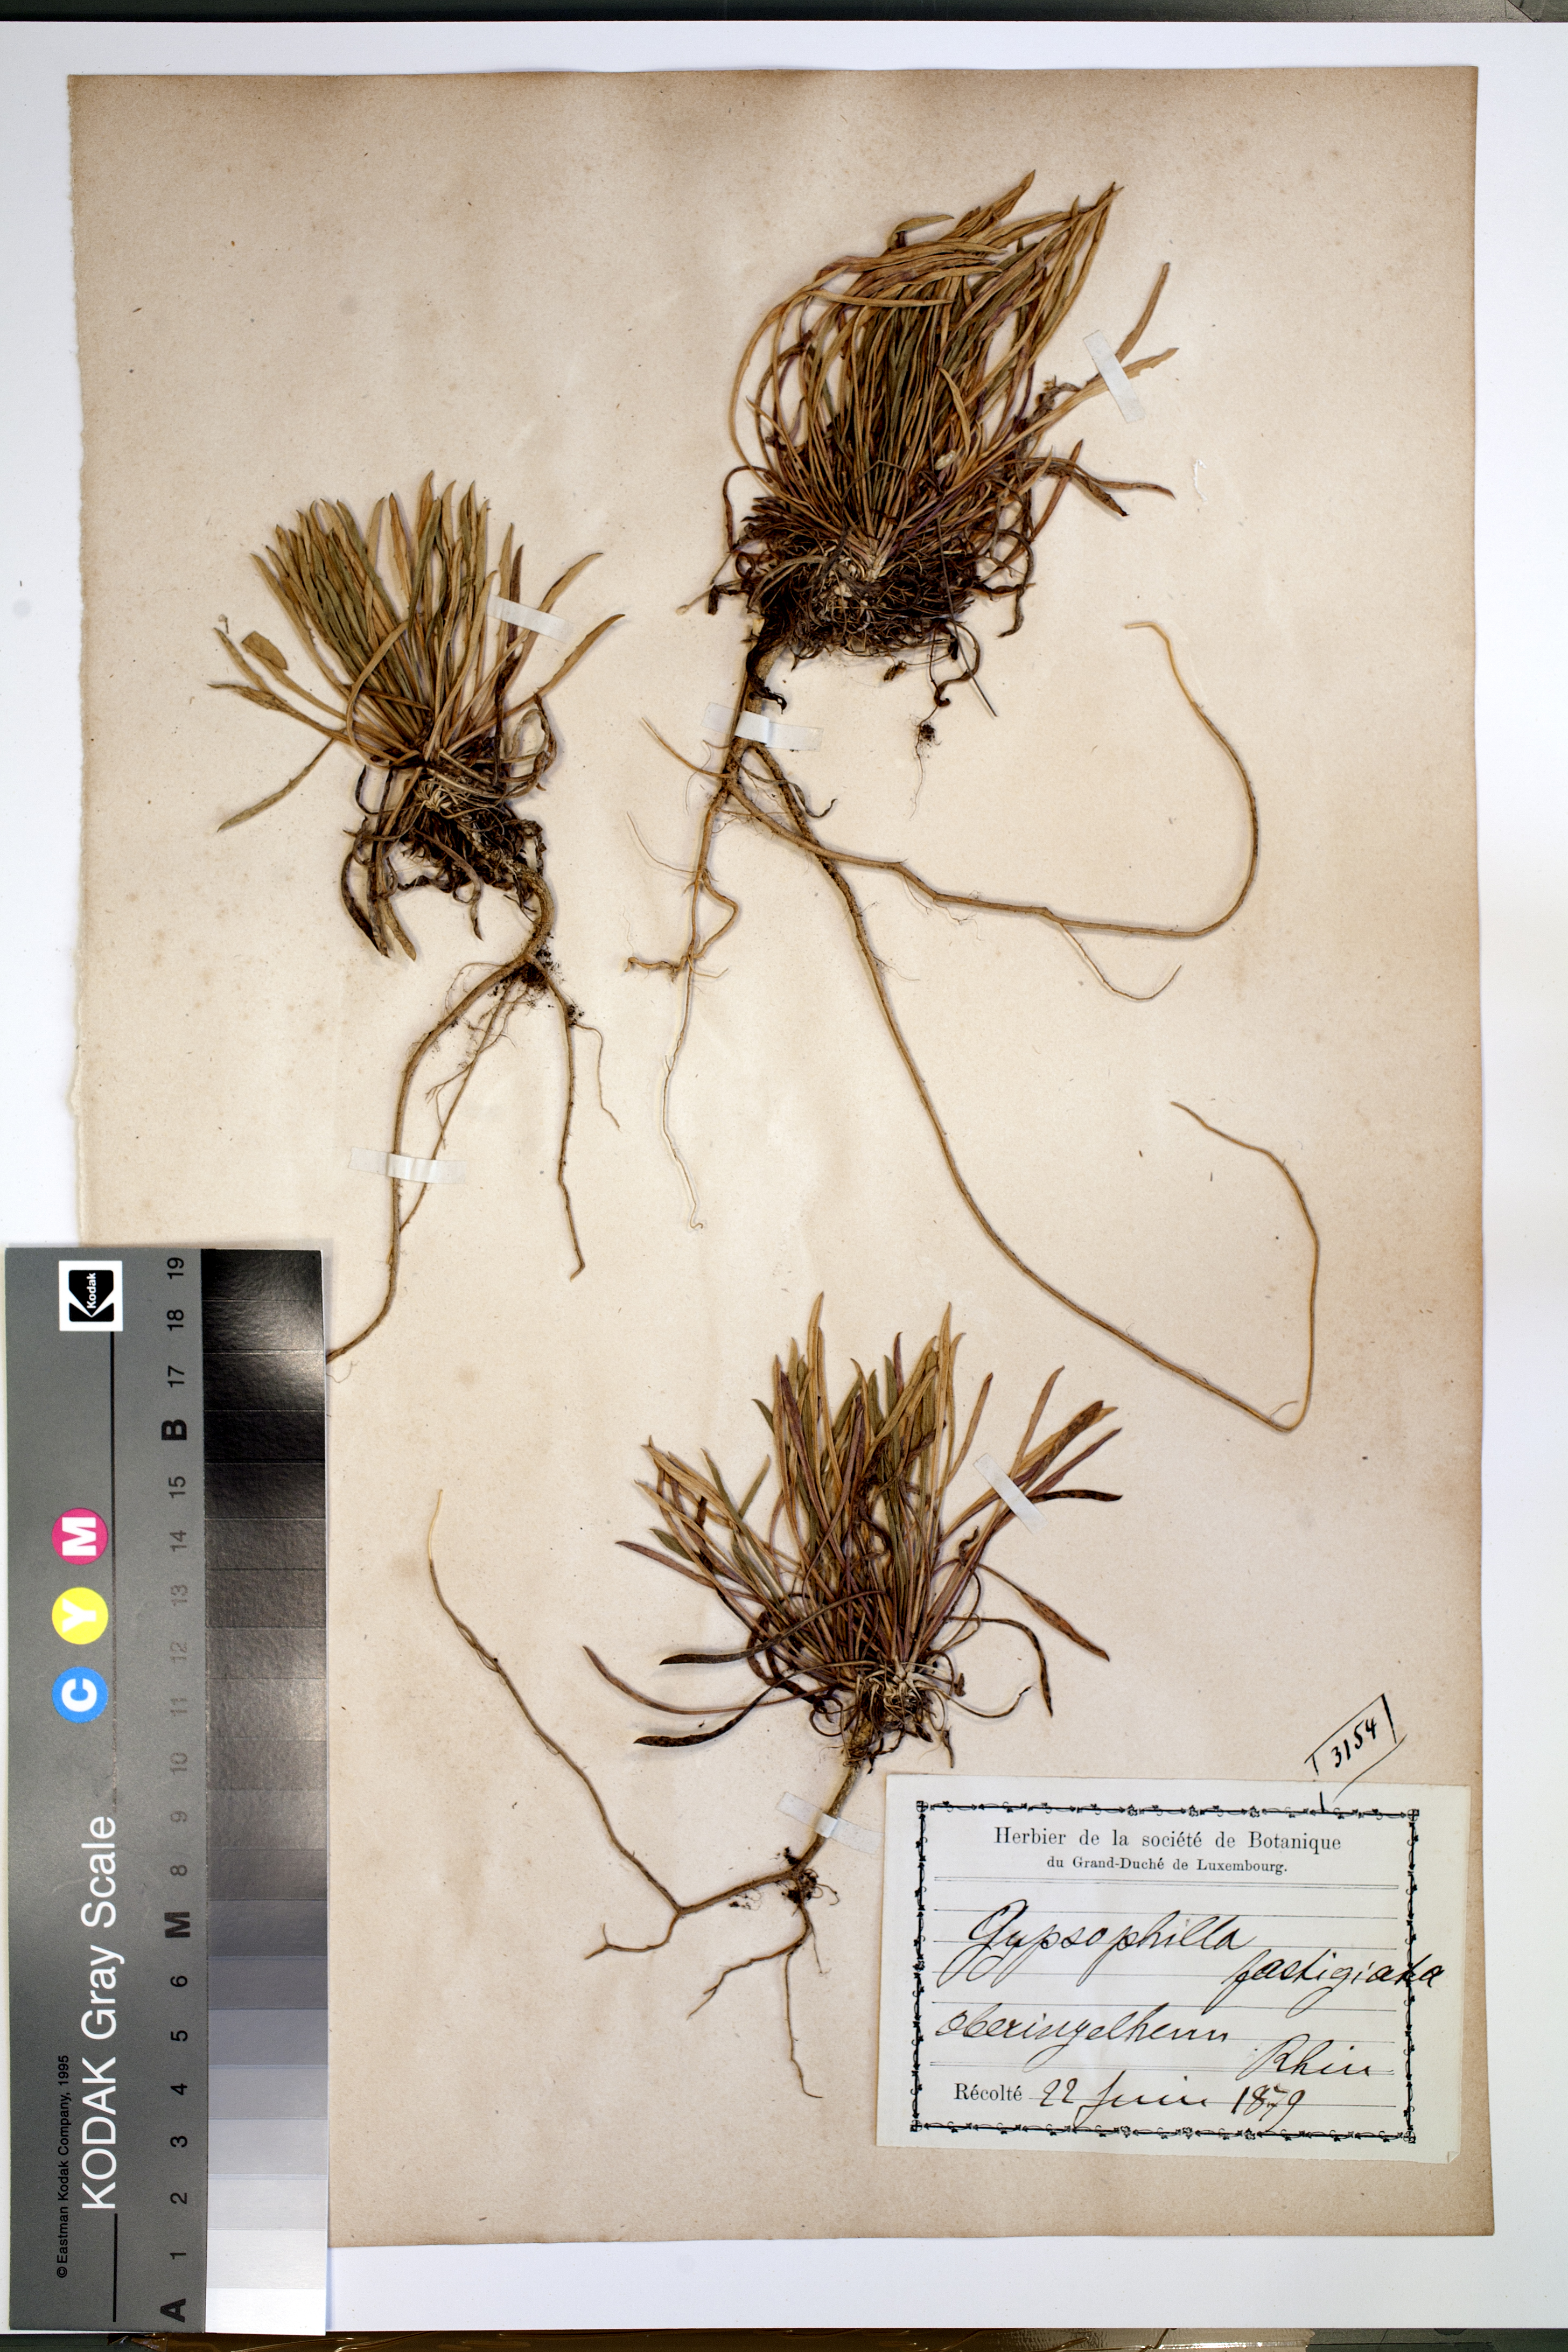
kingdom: Plantae
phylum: Tracheophyta
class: Magnoliopsida
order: Caryophyllales
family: Caryophyllaceae
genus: Gypsophila
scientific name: Gypsophila fastigiata
